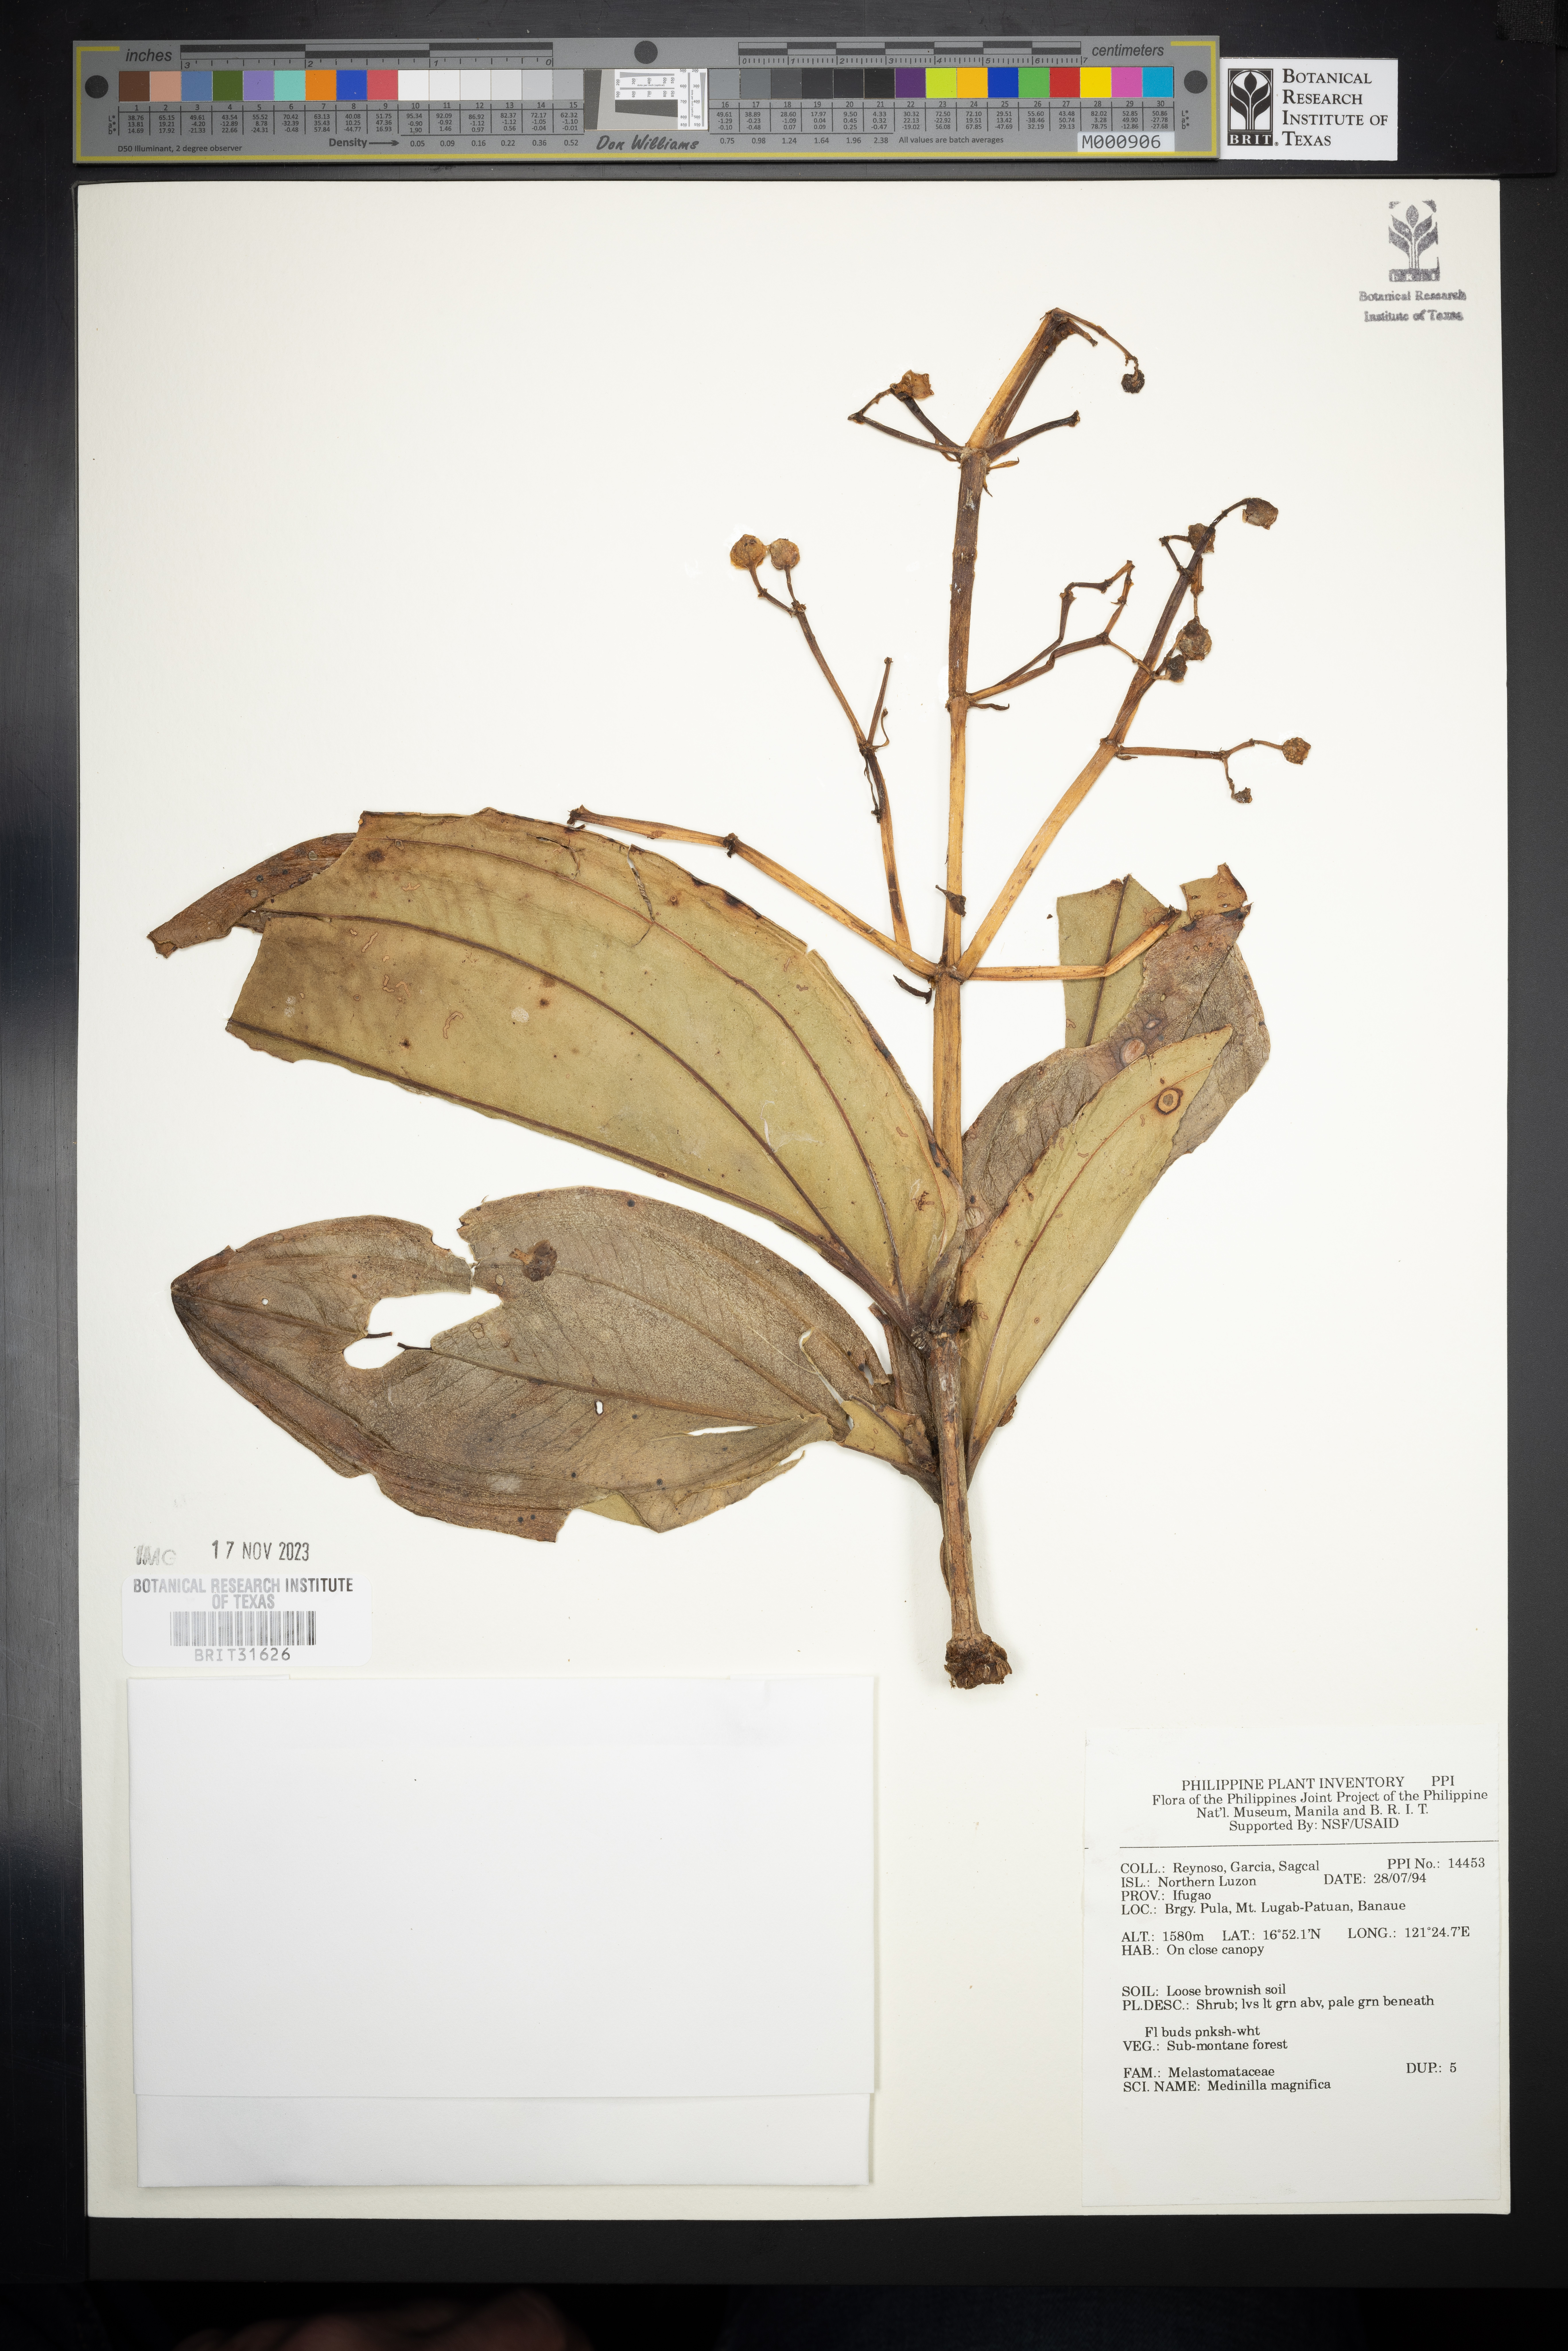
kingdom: Plantae
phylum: Tracheophyta
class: Magnoliopsida
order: Myrtales
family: Melastomataceae
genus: Medinilla
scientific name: Medinilla magnifica
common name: Showy medinilla
